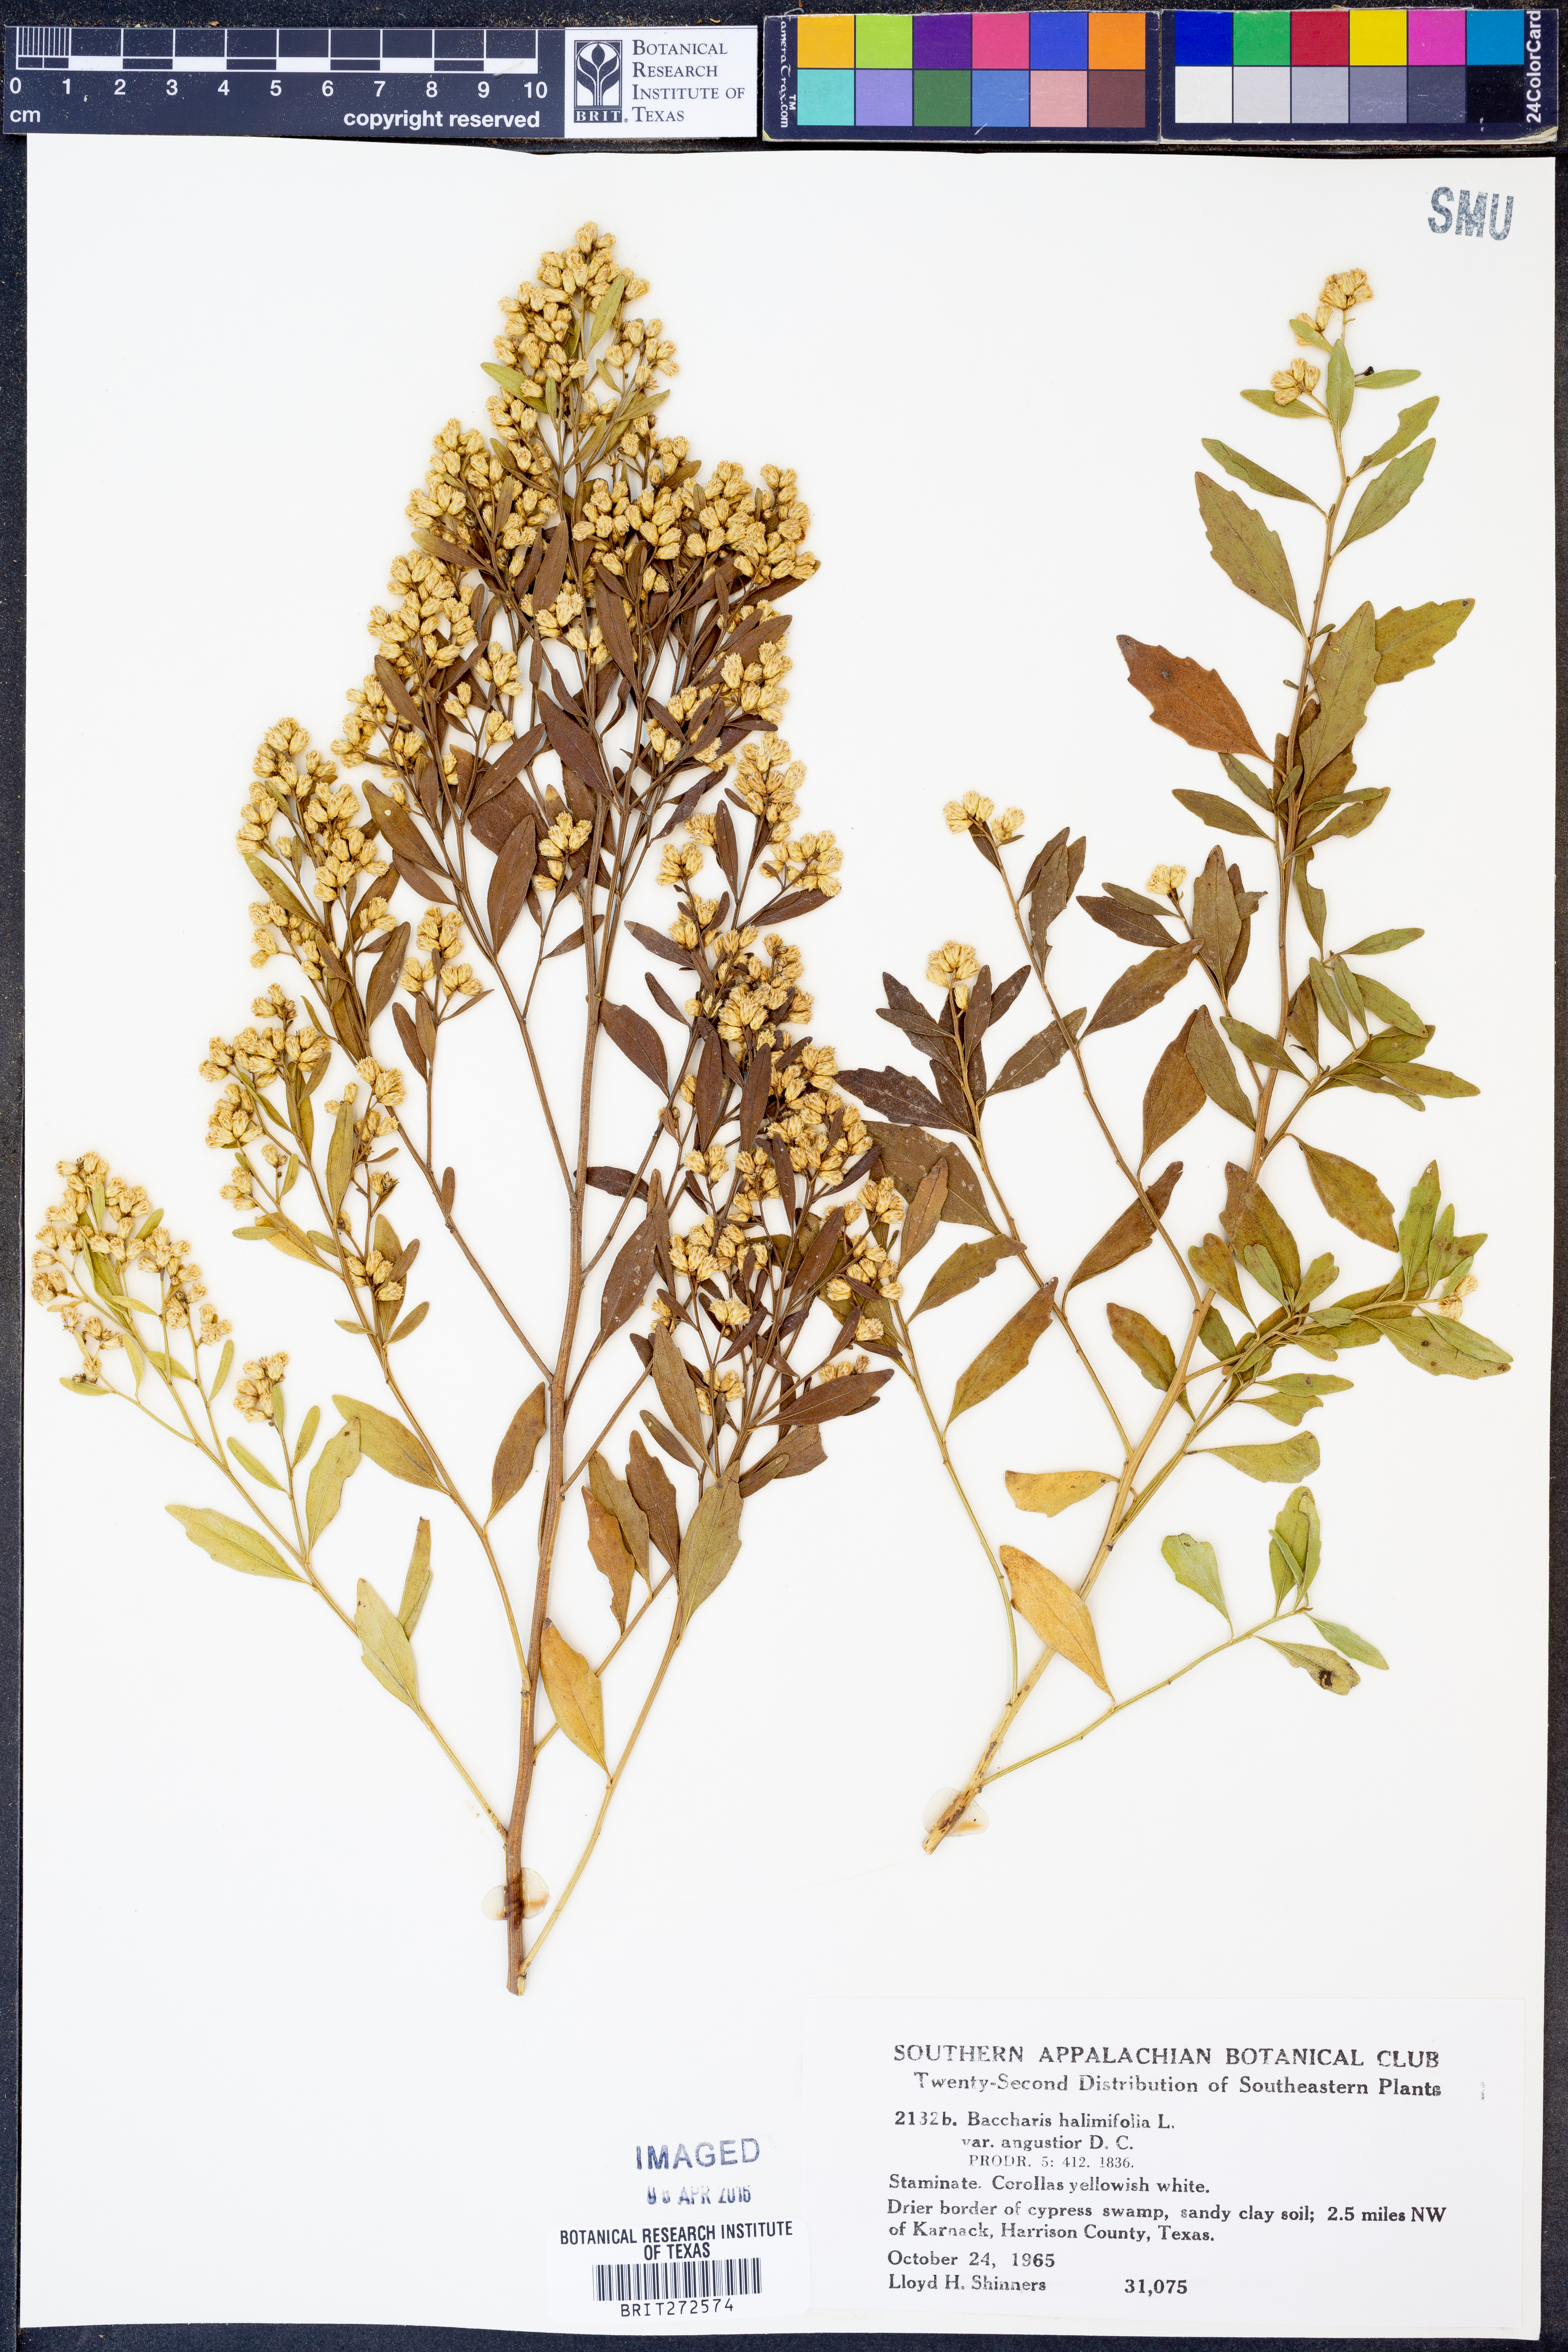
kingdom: Plantae
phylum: Tracheophyta
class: Magnoliopsida
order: Asterales
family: Asteraceae
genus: Baccharis
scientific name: Baccharis halimifolia
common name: Eastern baccharis
